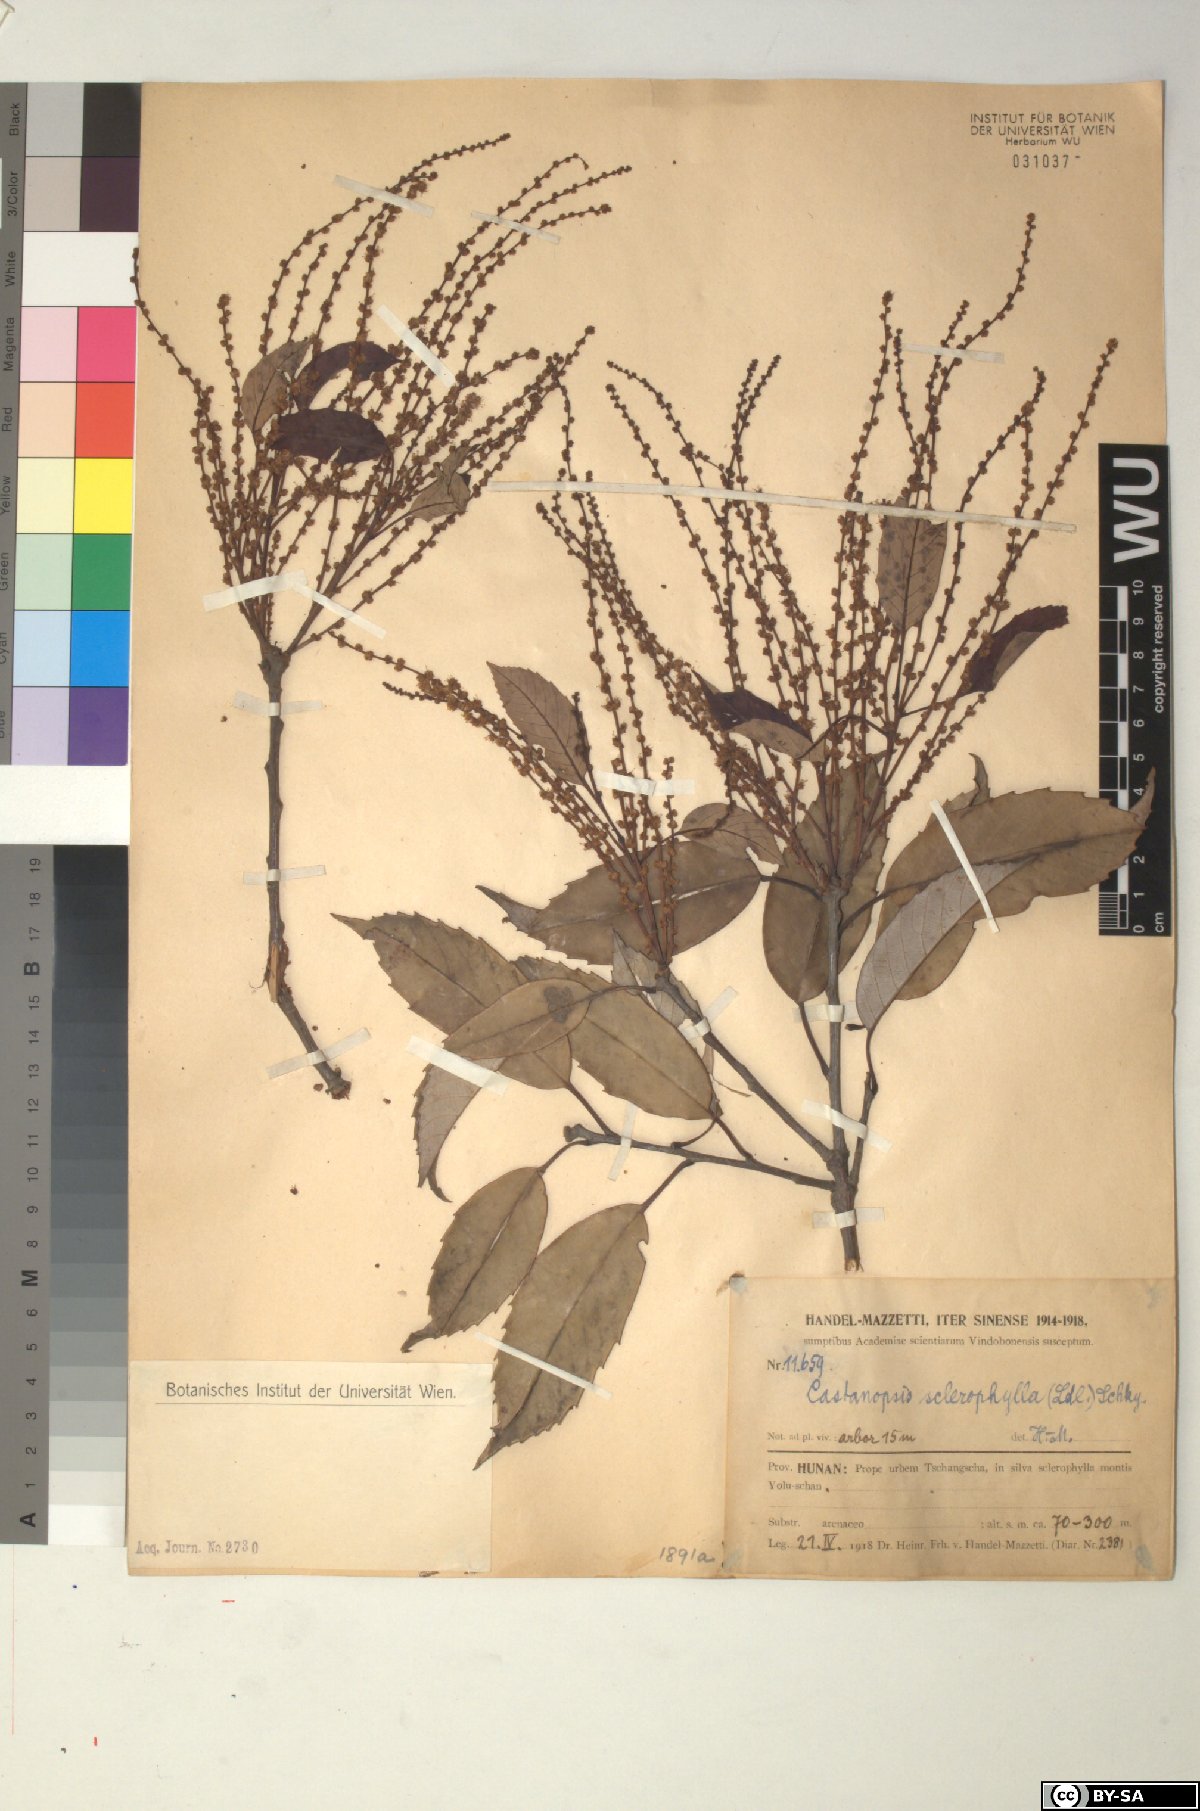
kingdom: Plantae
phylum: Tracheophyta
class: Magnoliopsida
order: Fagales
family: Fagaceae
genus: Castanopsis
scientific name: Castanopsis sclerophylla
